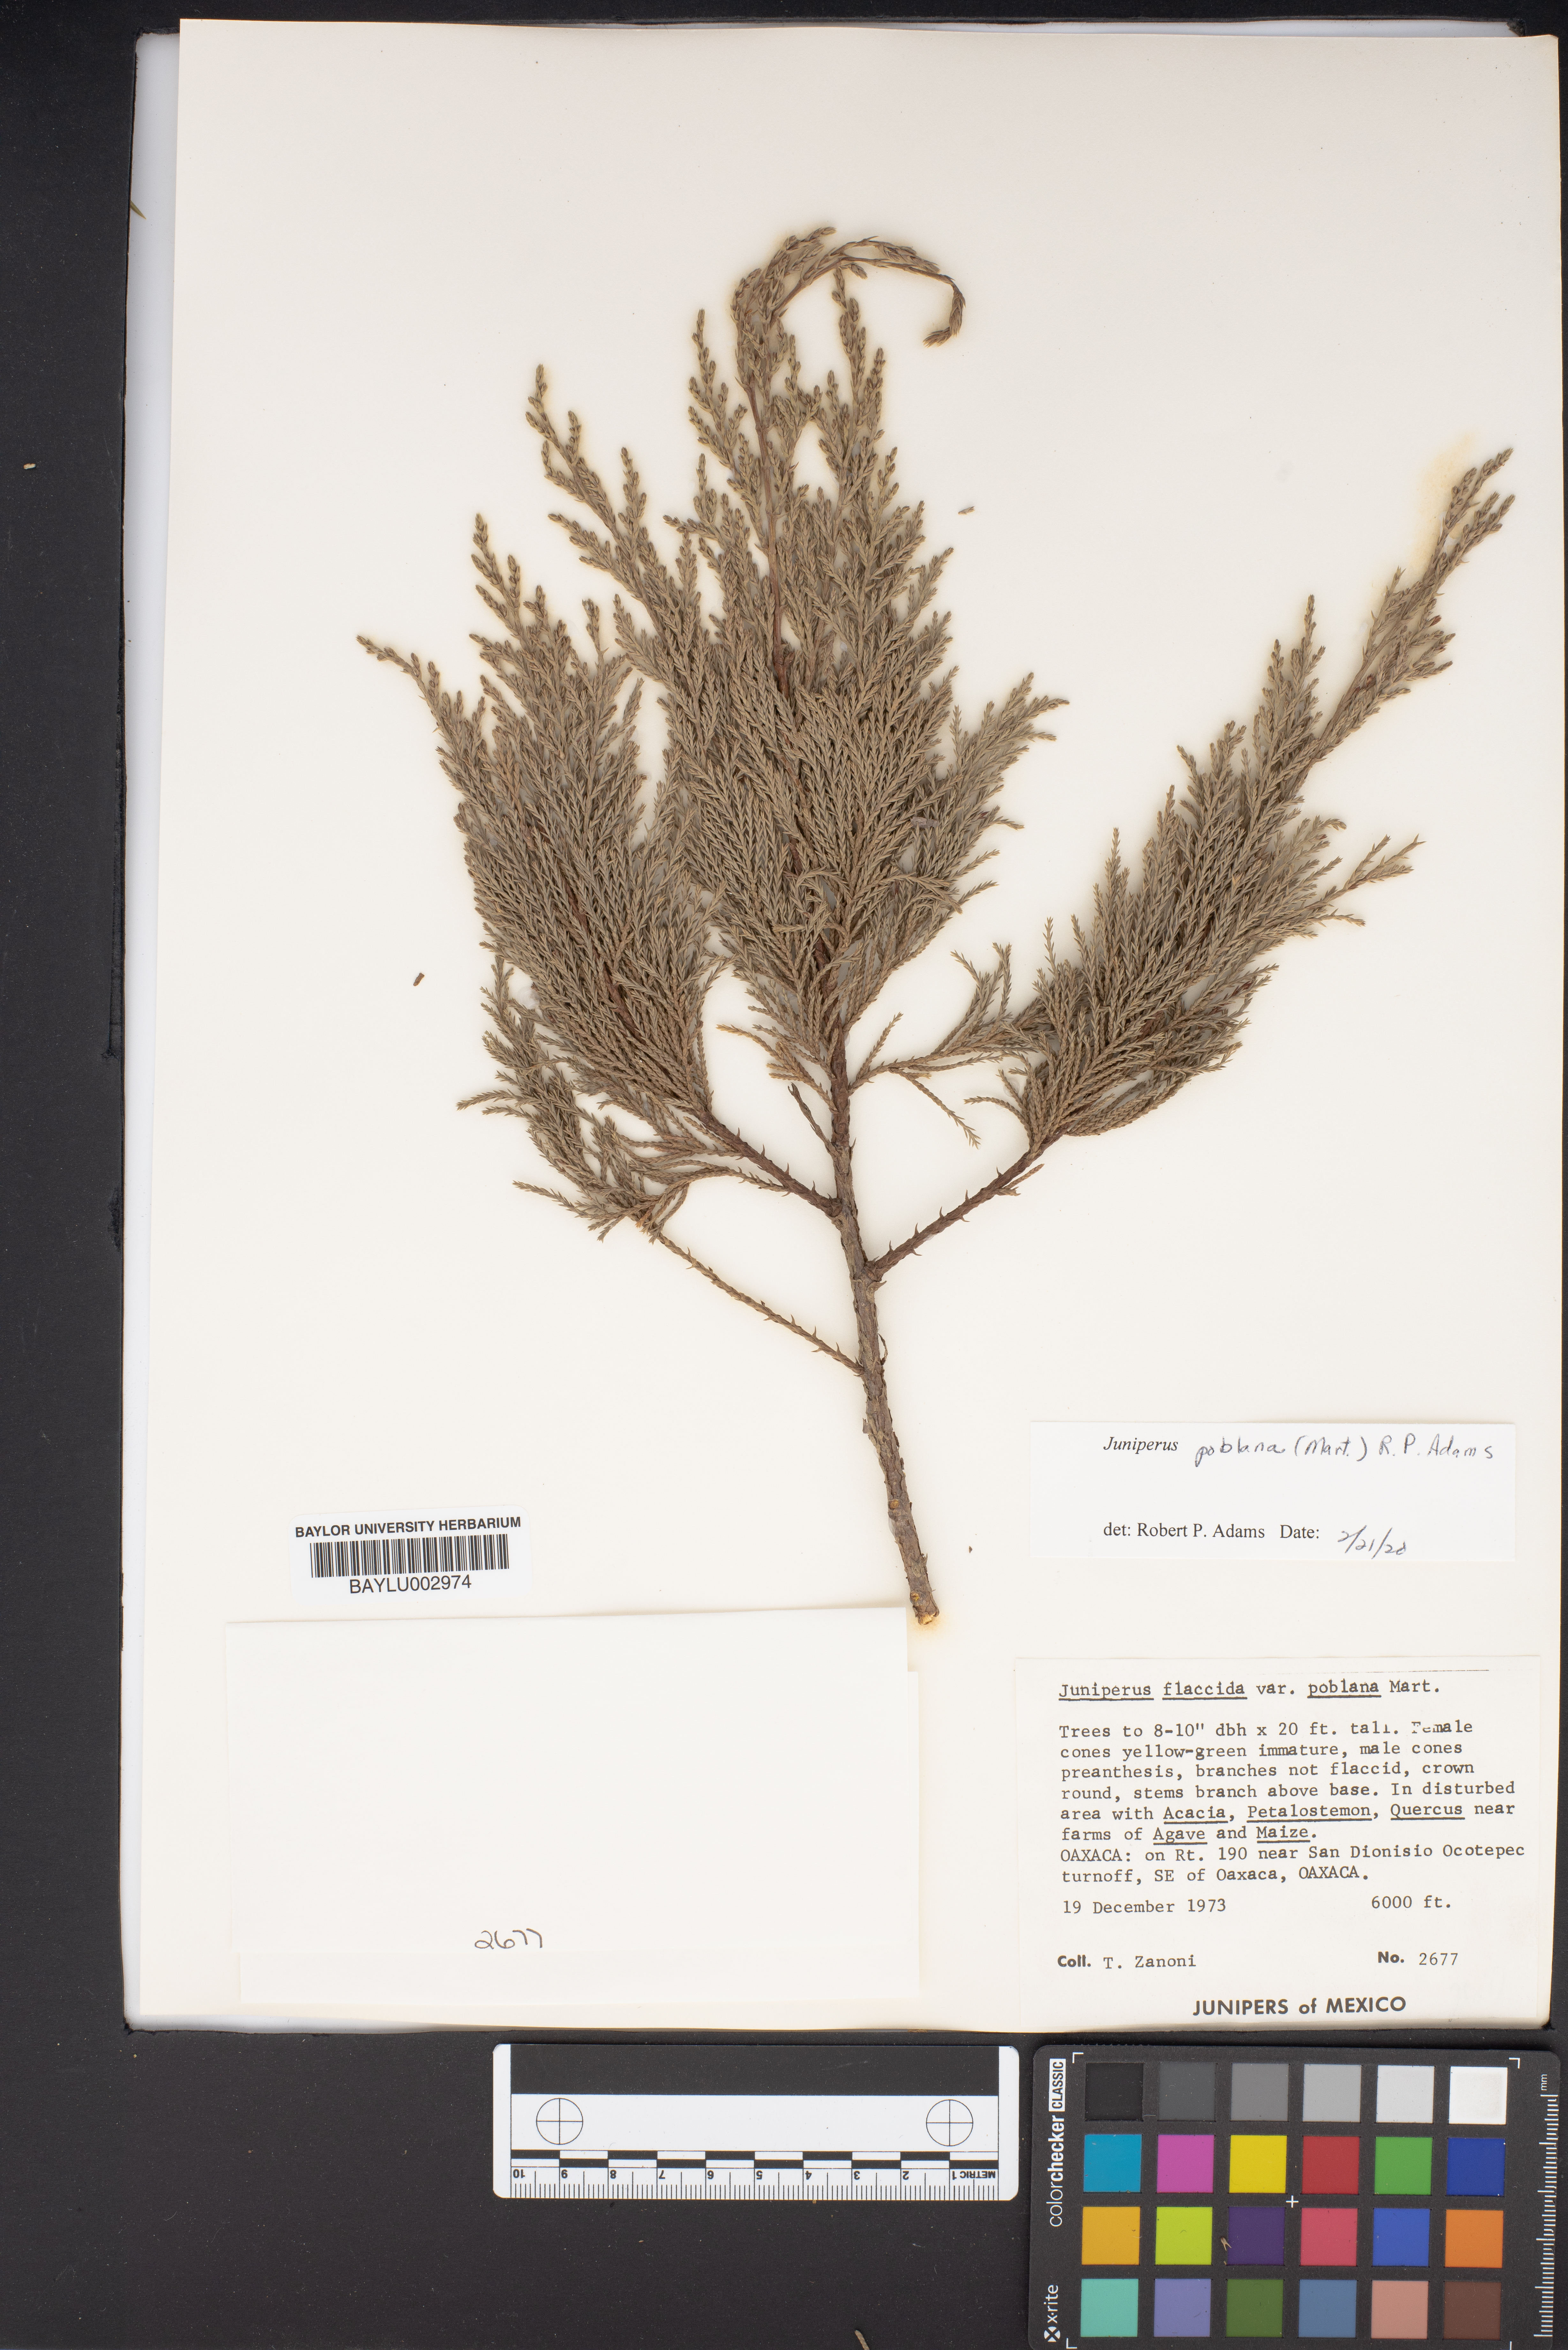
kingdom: Plantae
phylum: Tracheophyta
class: Pinopsida
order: Pinales
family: Cupressaceae
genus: Juniperus
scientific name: Juniperus flaccida
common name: Drooping juniper
